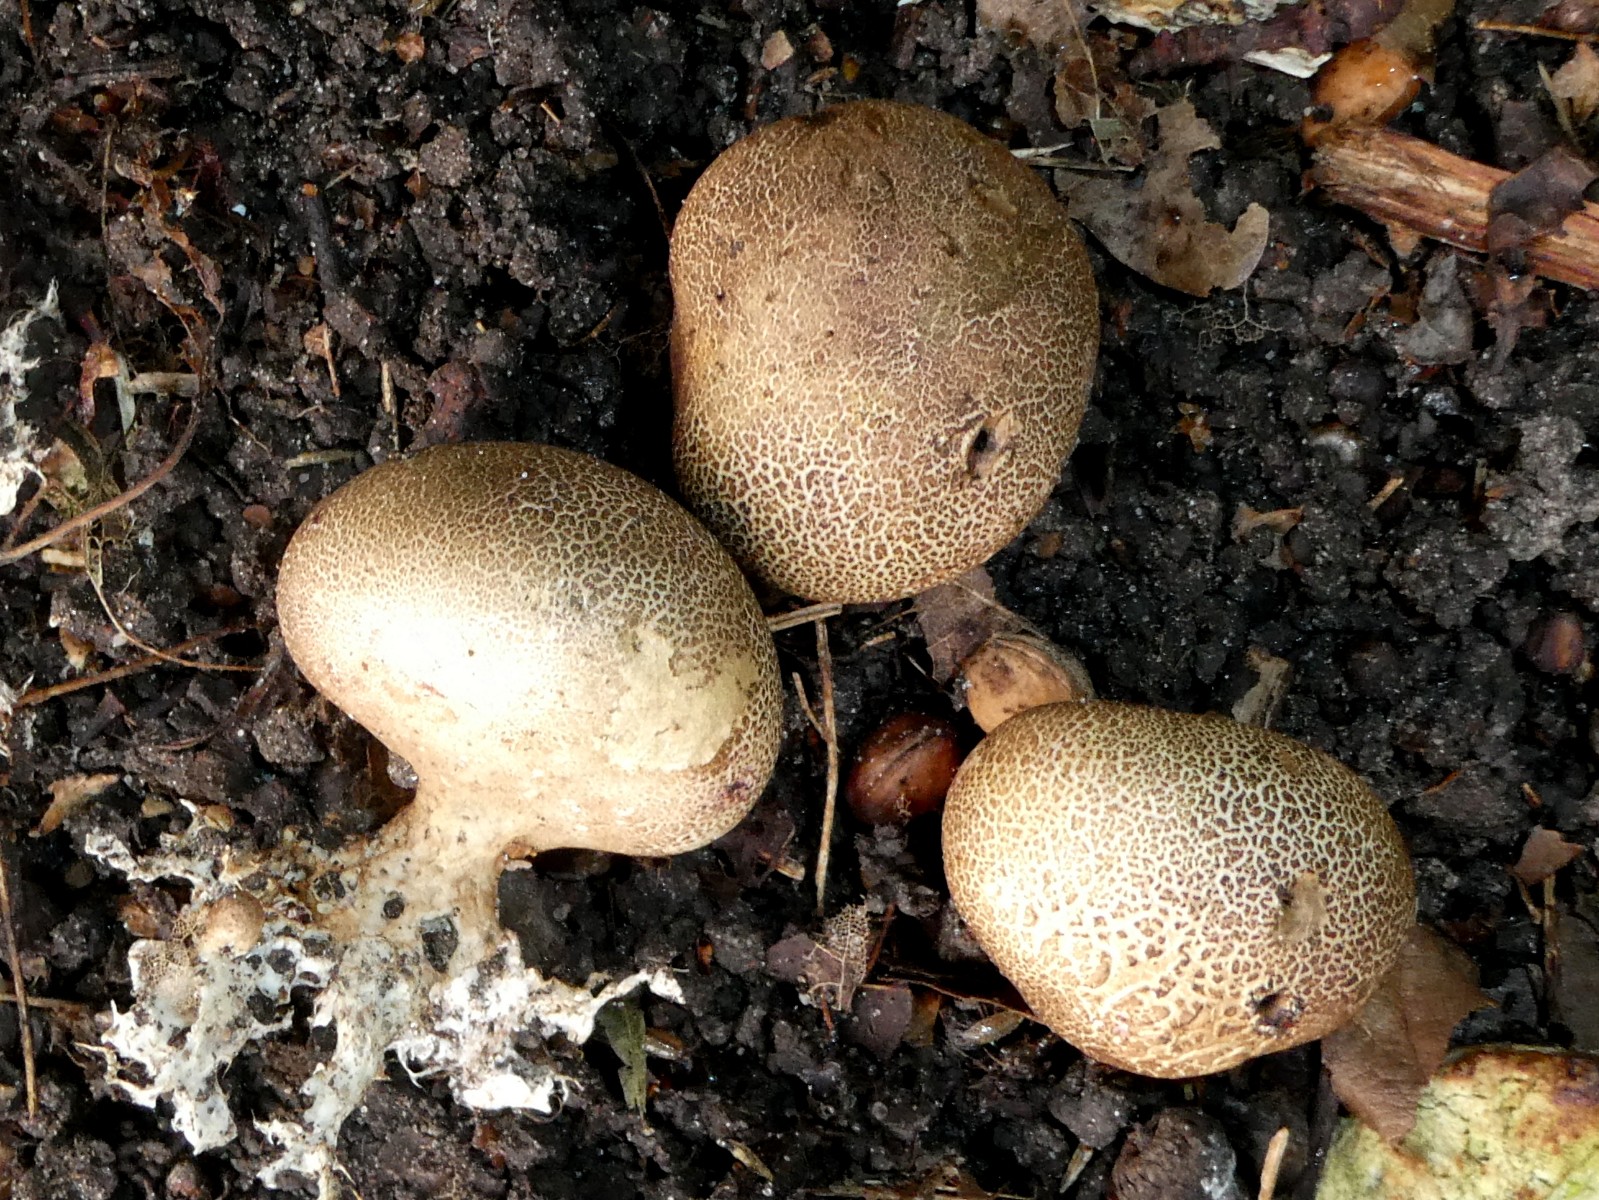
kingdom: Fungi
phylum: Basidiomycota
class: Agaricomycetes
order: Boletales
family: Sclerodermataceae
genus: Scleroderma
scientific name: Scleroderma areolatum
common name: plettet bruskbold
